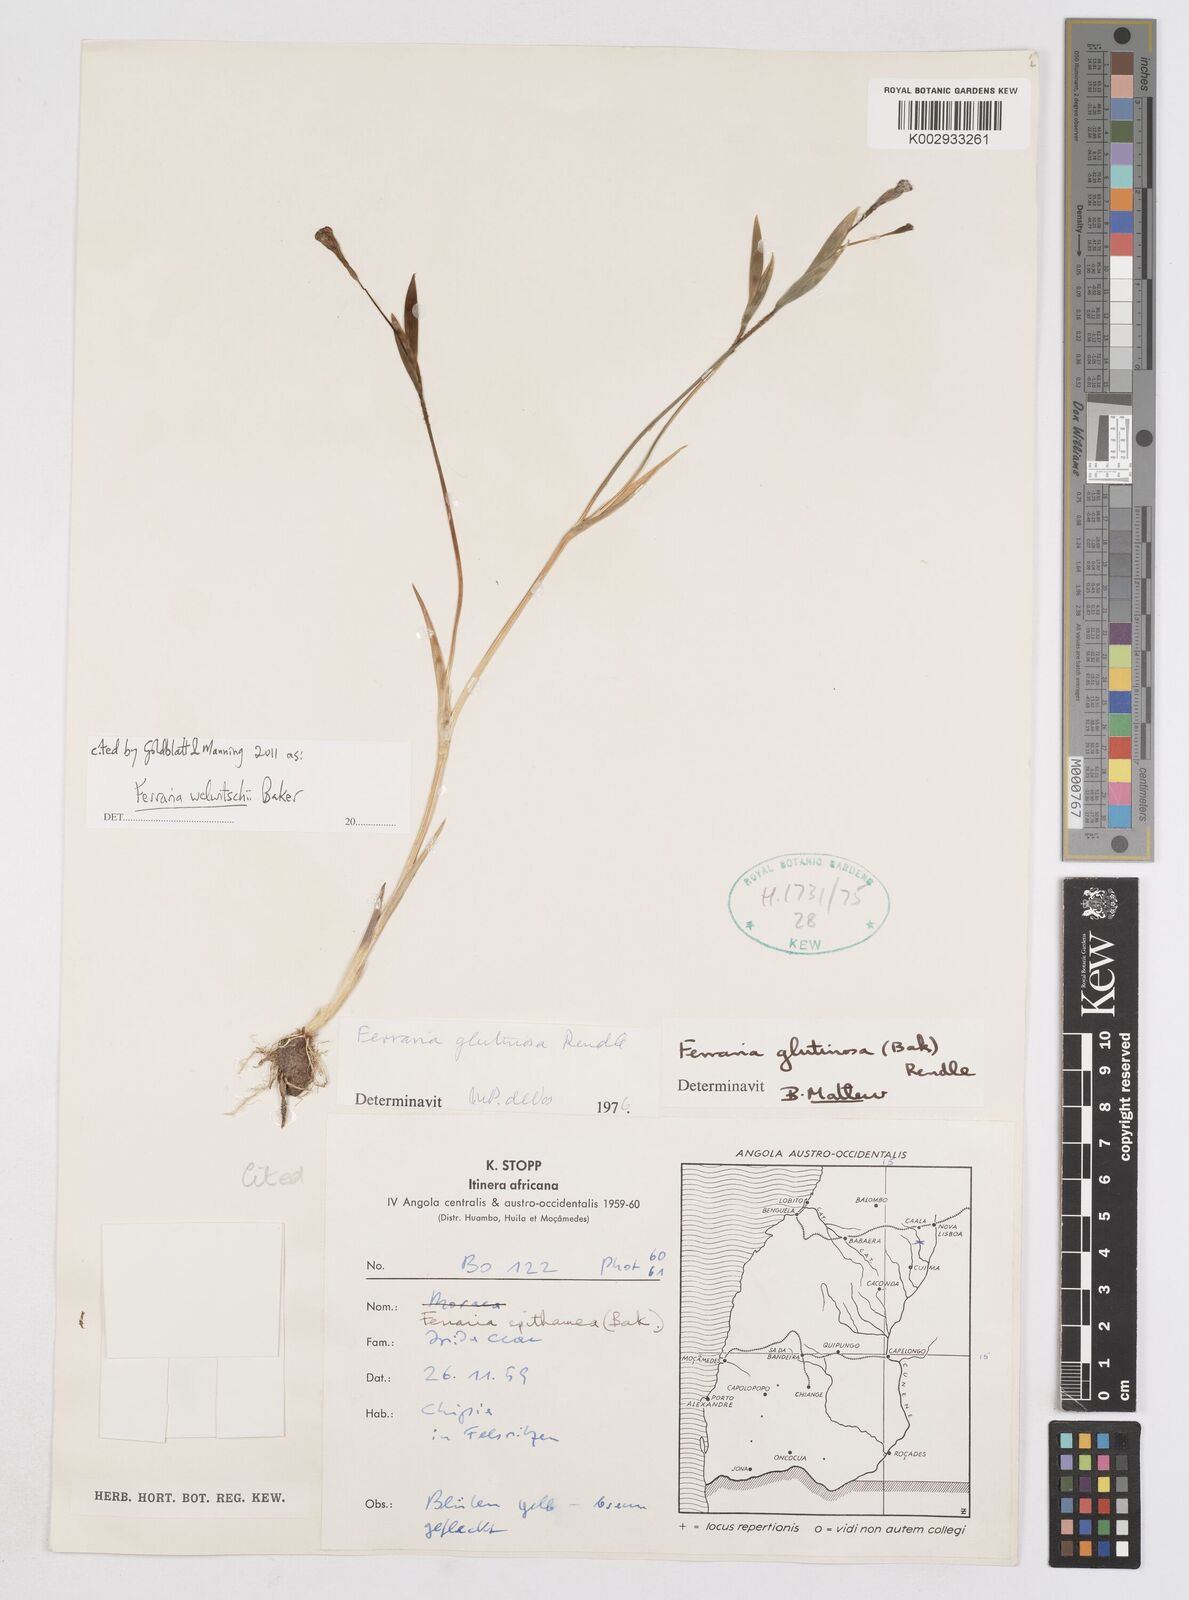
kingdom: Plantae
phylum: Tracheophyta
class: Liliopsida
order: Asparagales
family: Iridaceae
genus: Ferraria
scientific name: Ferraria welwitschii
